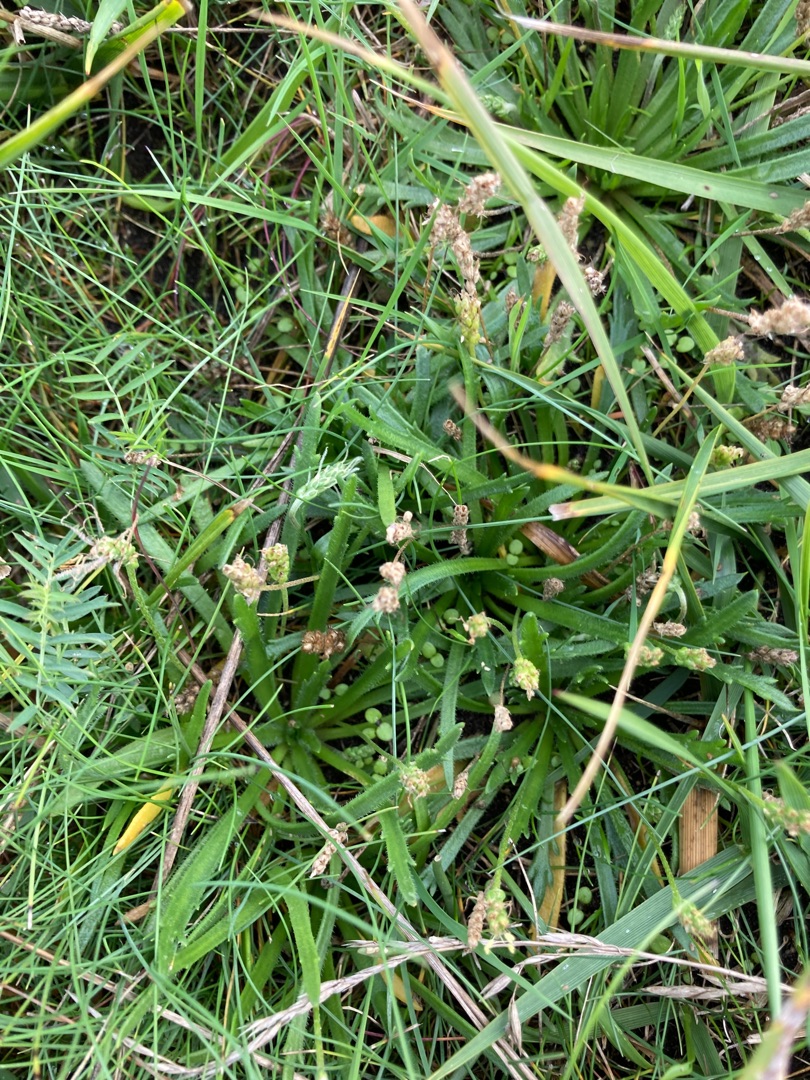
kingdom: Plantae
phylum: Tracheophyta
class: Magnoliopsida
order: Lamiales
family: Plantaginaceae
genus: Plantago
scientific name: Plantago coronopus
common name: Fliget vejbred
